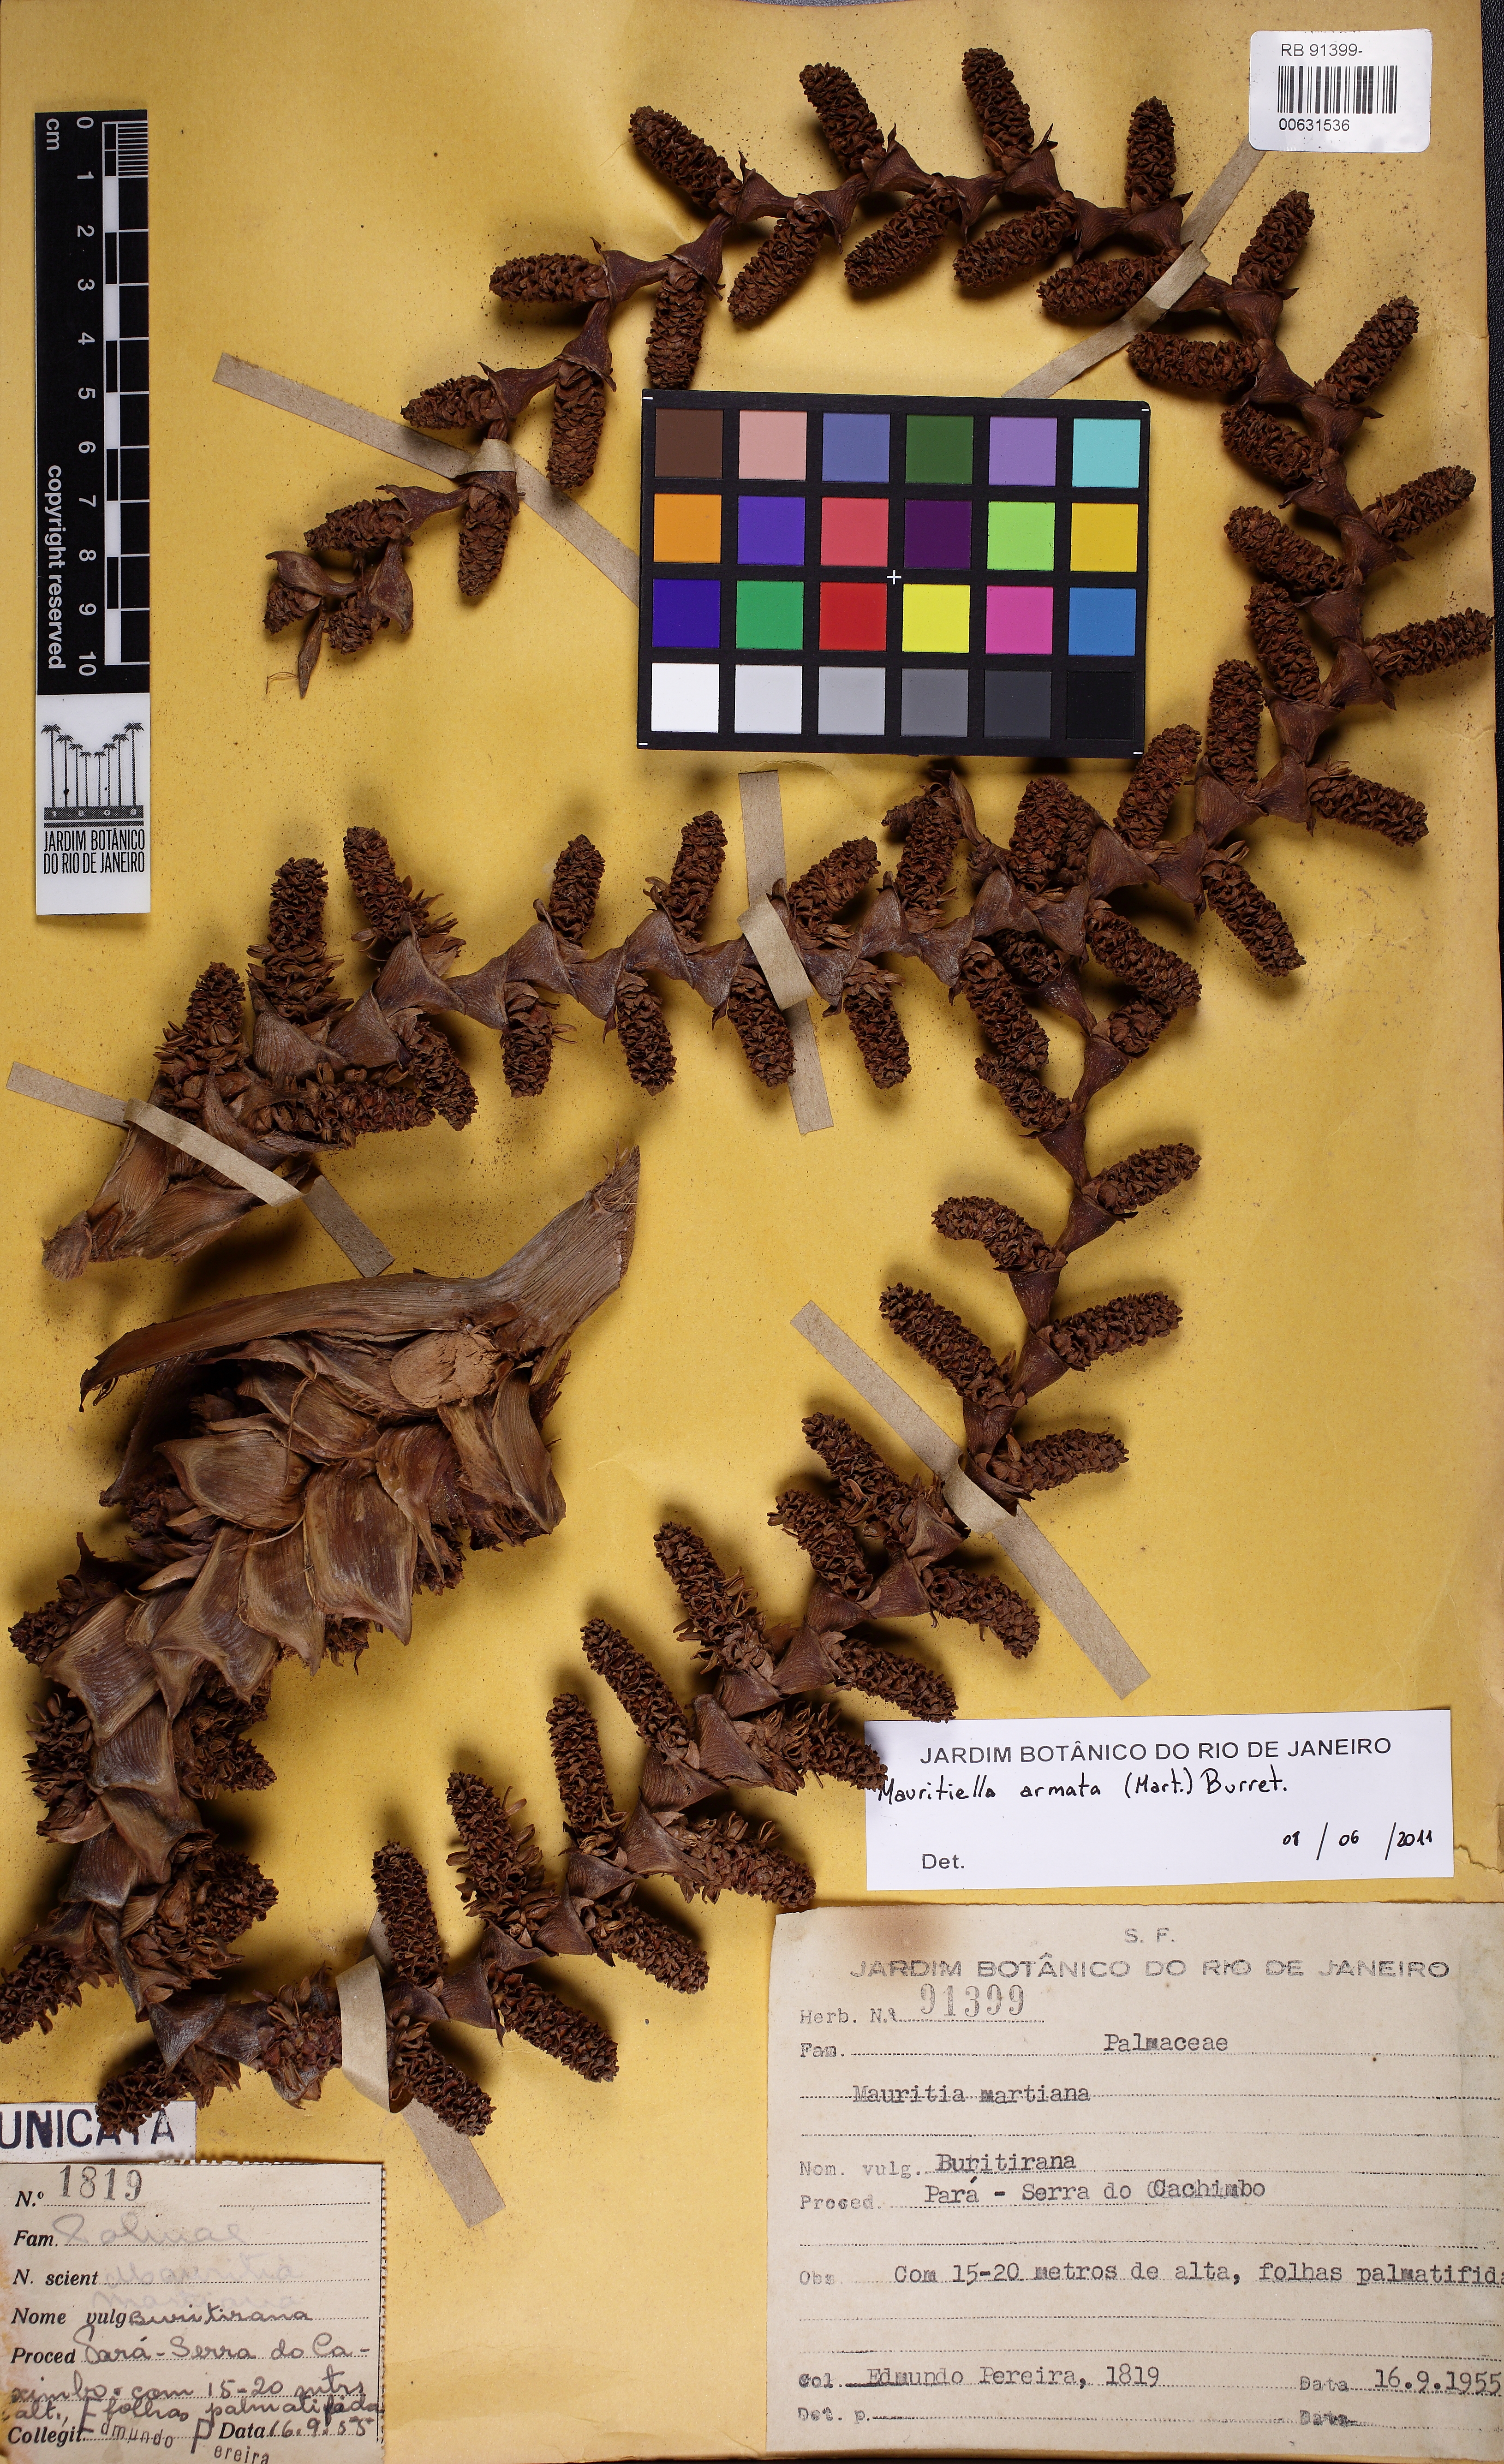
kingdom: Plantae
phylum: Tracheophyta
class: Liliopsida
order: Arecales
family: Arecaceae
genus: Mauritiella
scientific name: Mauritiella armata
